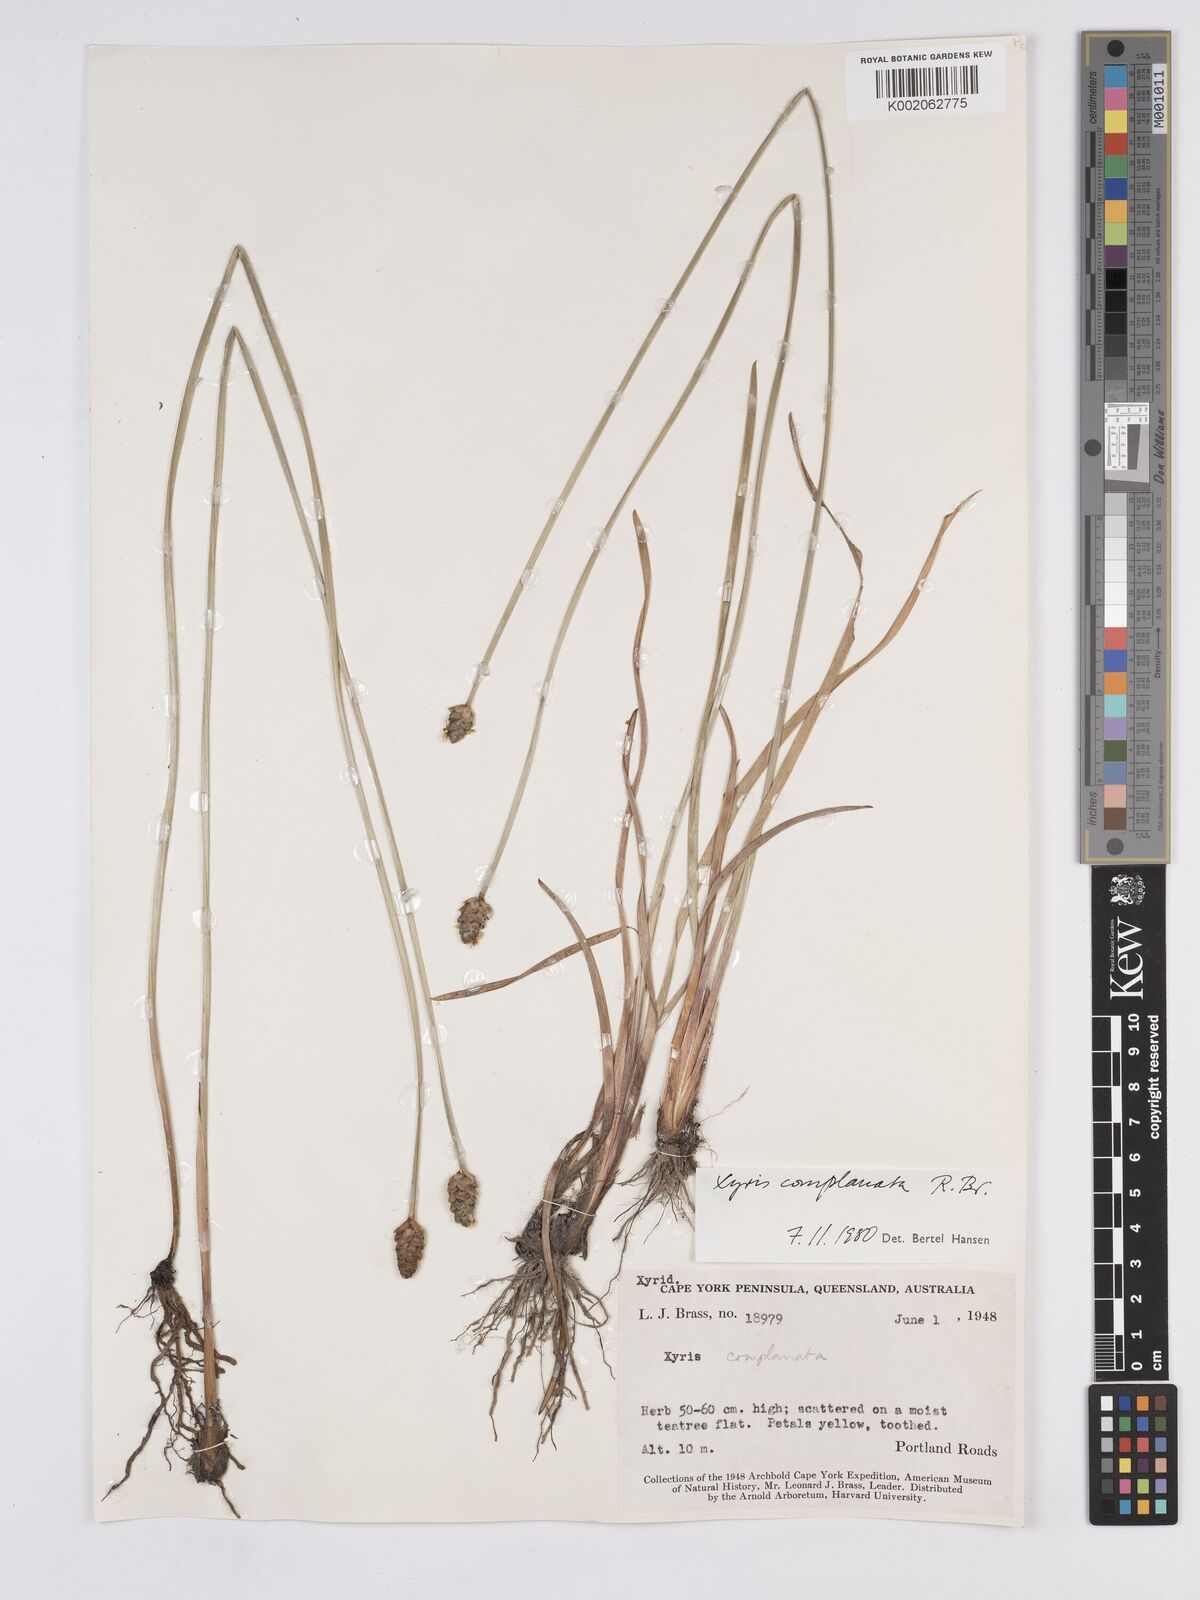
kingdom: Plantae
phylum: Tracheophyta
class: Liliopsida
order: Poales
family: Xyridaceae
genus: Xyris
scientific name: Xyris complanata
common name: Hawai'i yelloweyed grass
